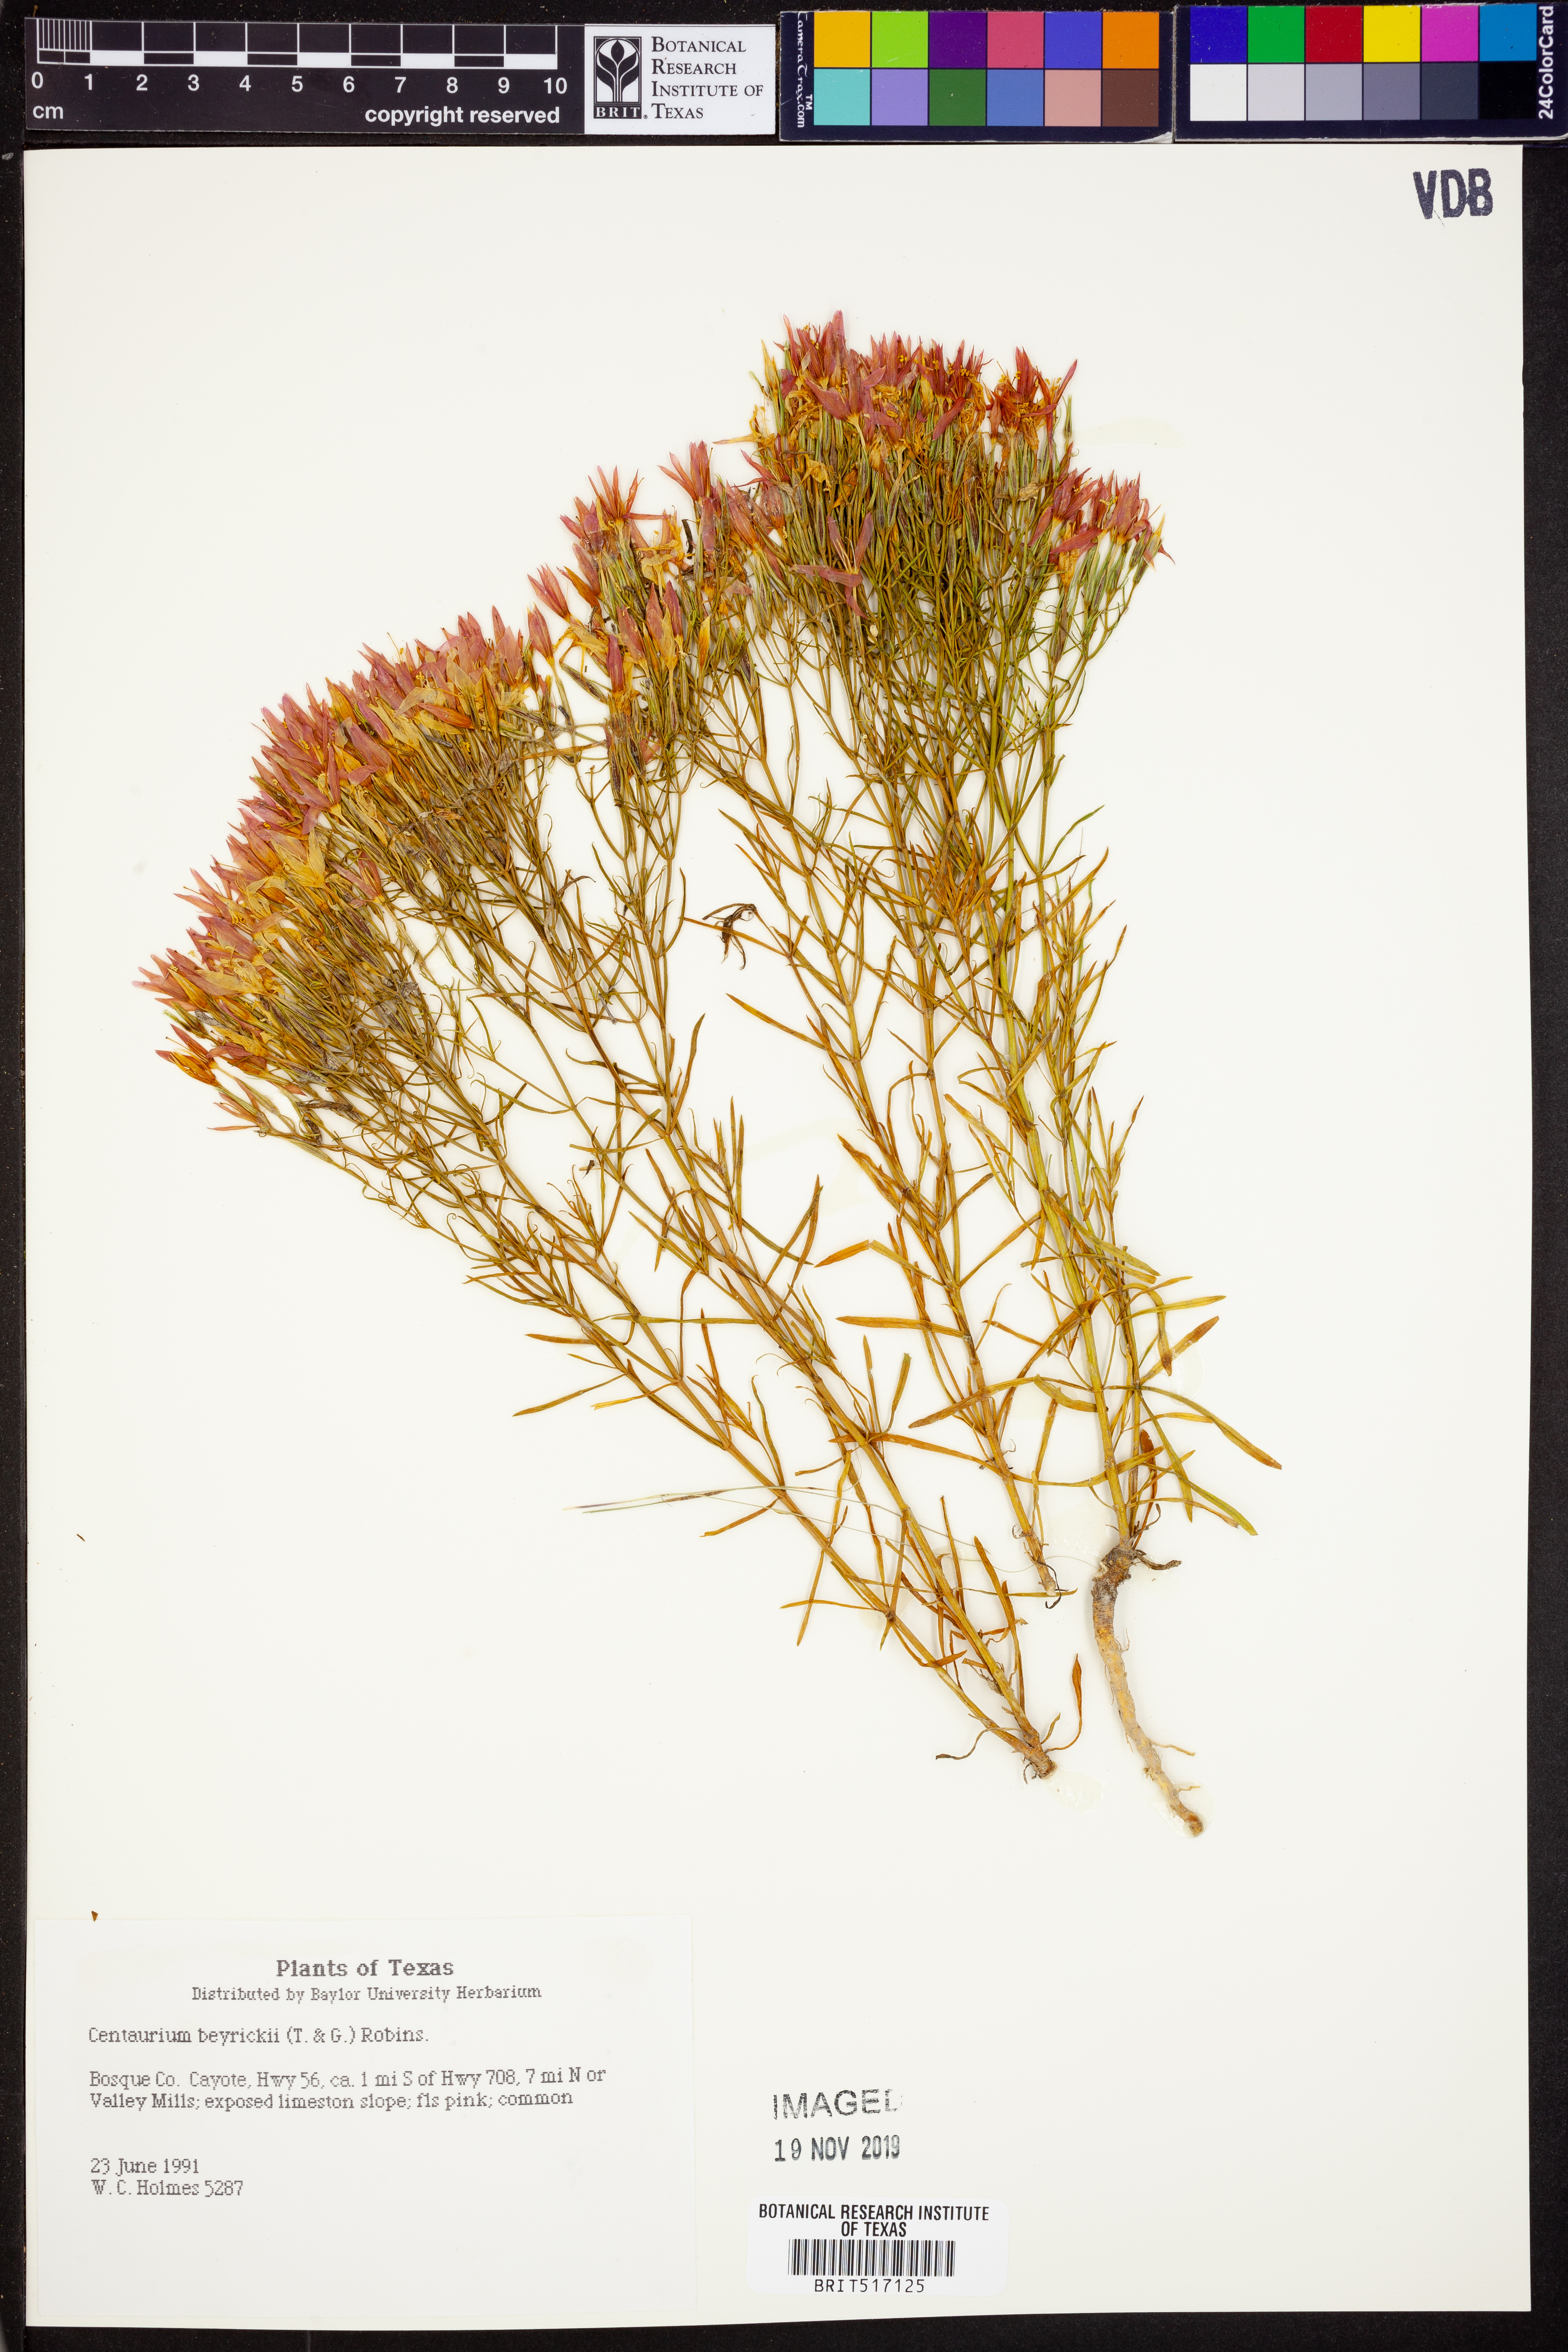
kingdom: Plantae
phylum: Tracheophyta
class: Magnoliopsida
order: Gentianales
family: Gentianaceae
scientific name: Gentianaceae
